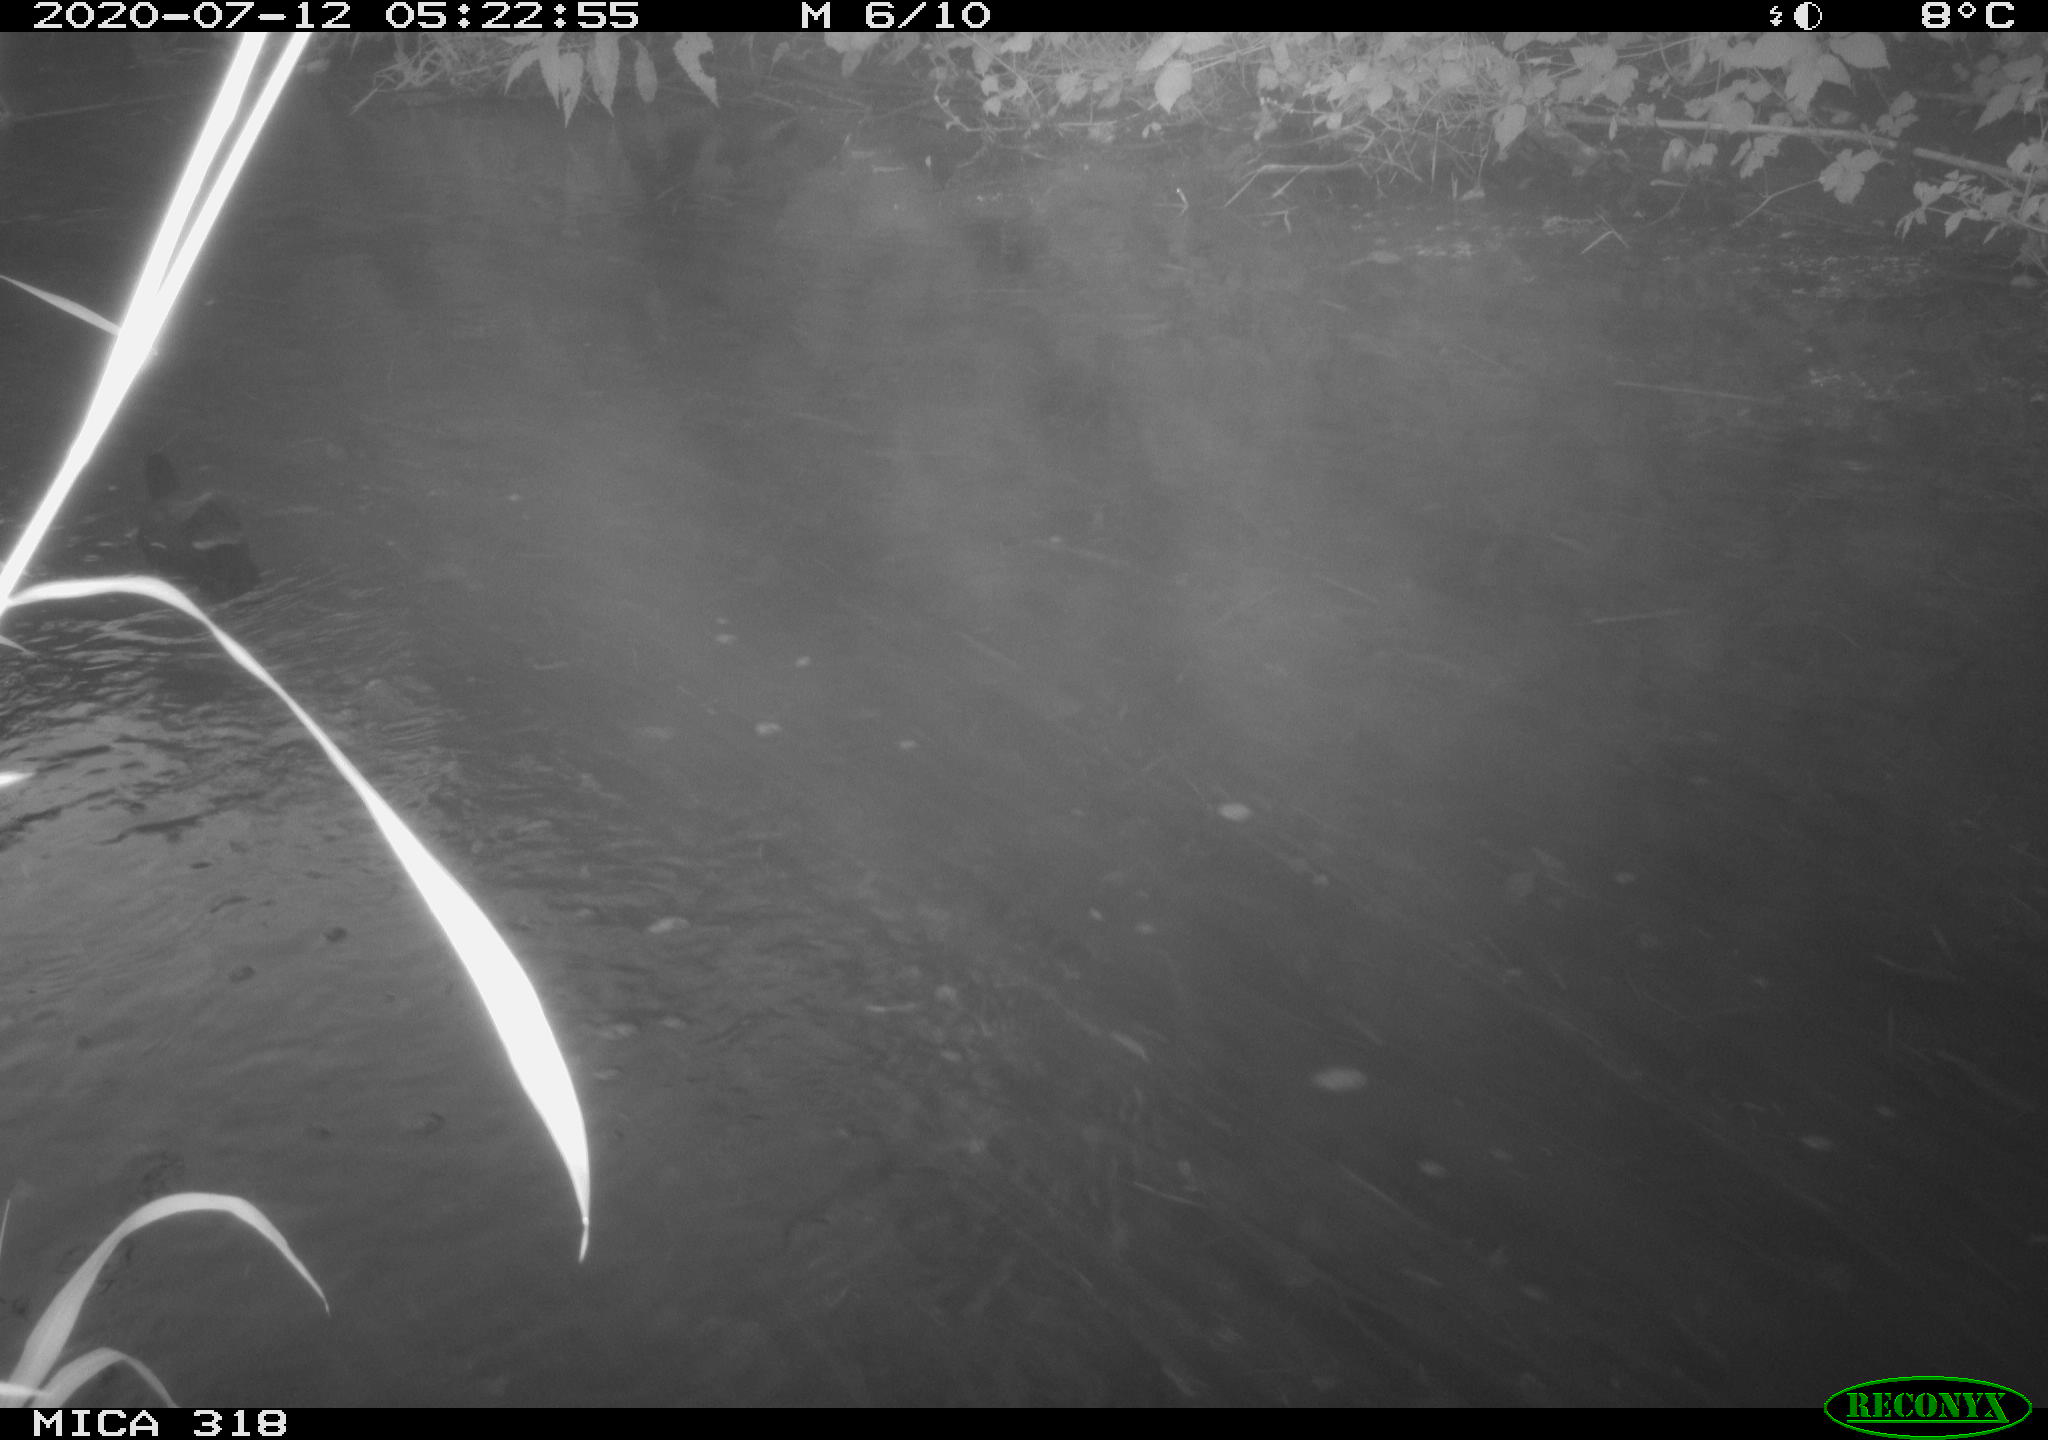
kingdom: Animalia
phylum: Chordata
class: Aves
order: Gruiformes
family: Rallidae
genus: Gallinula
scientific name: Gallinula chloropus
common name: Common moorhen
